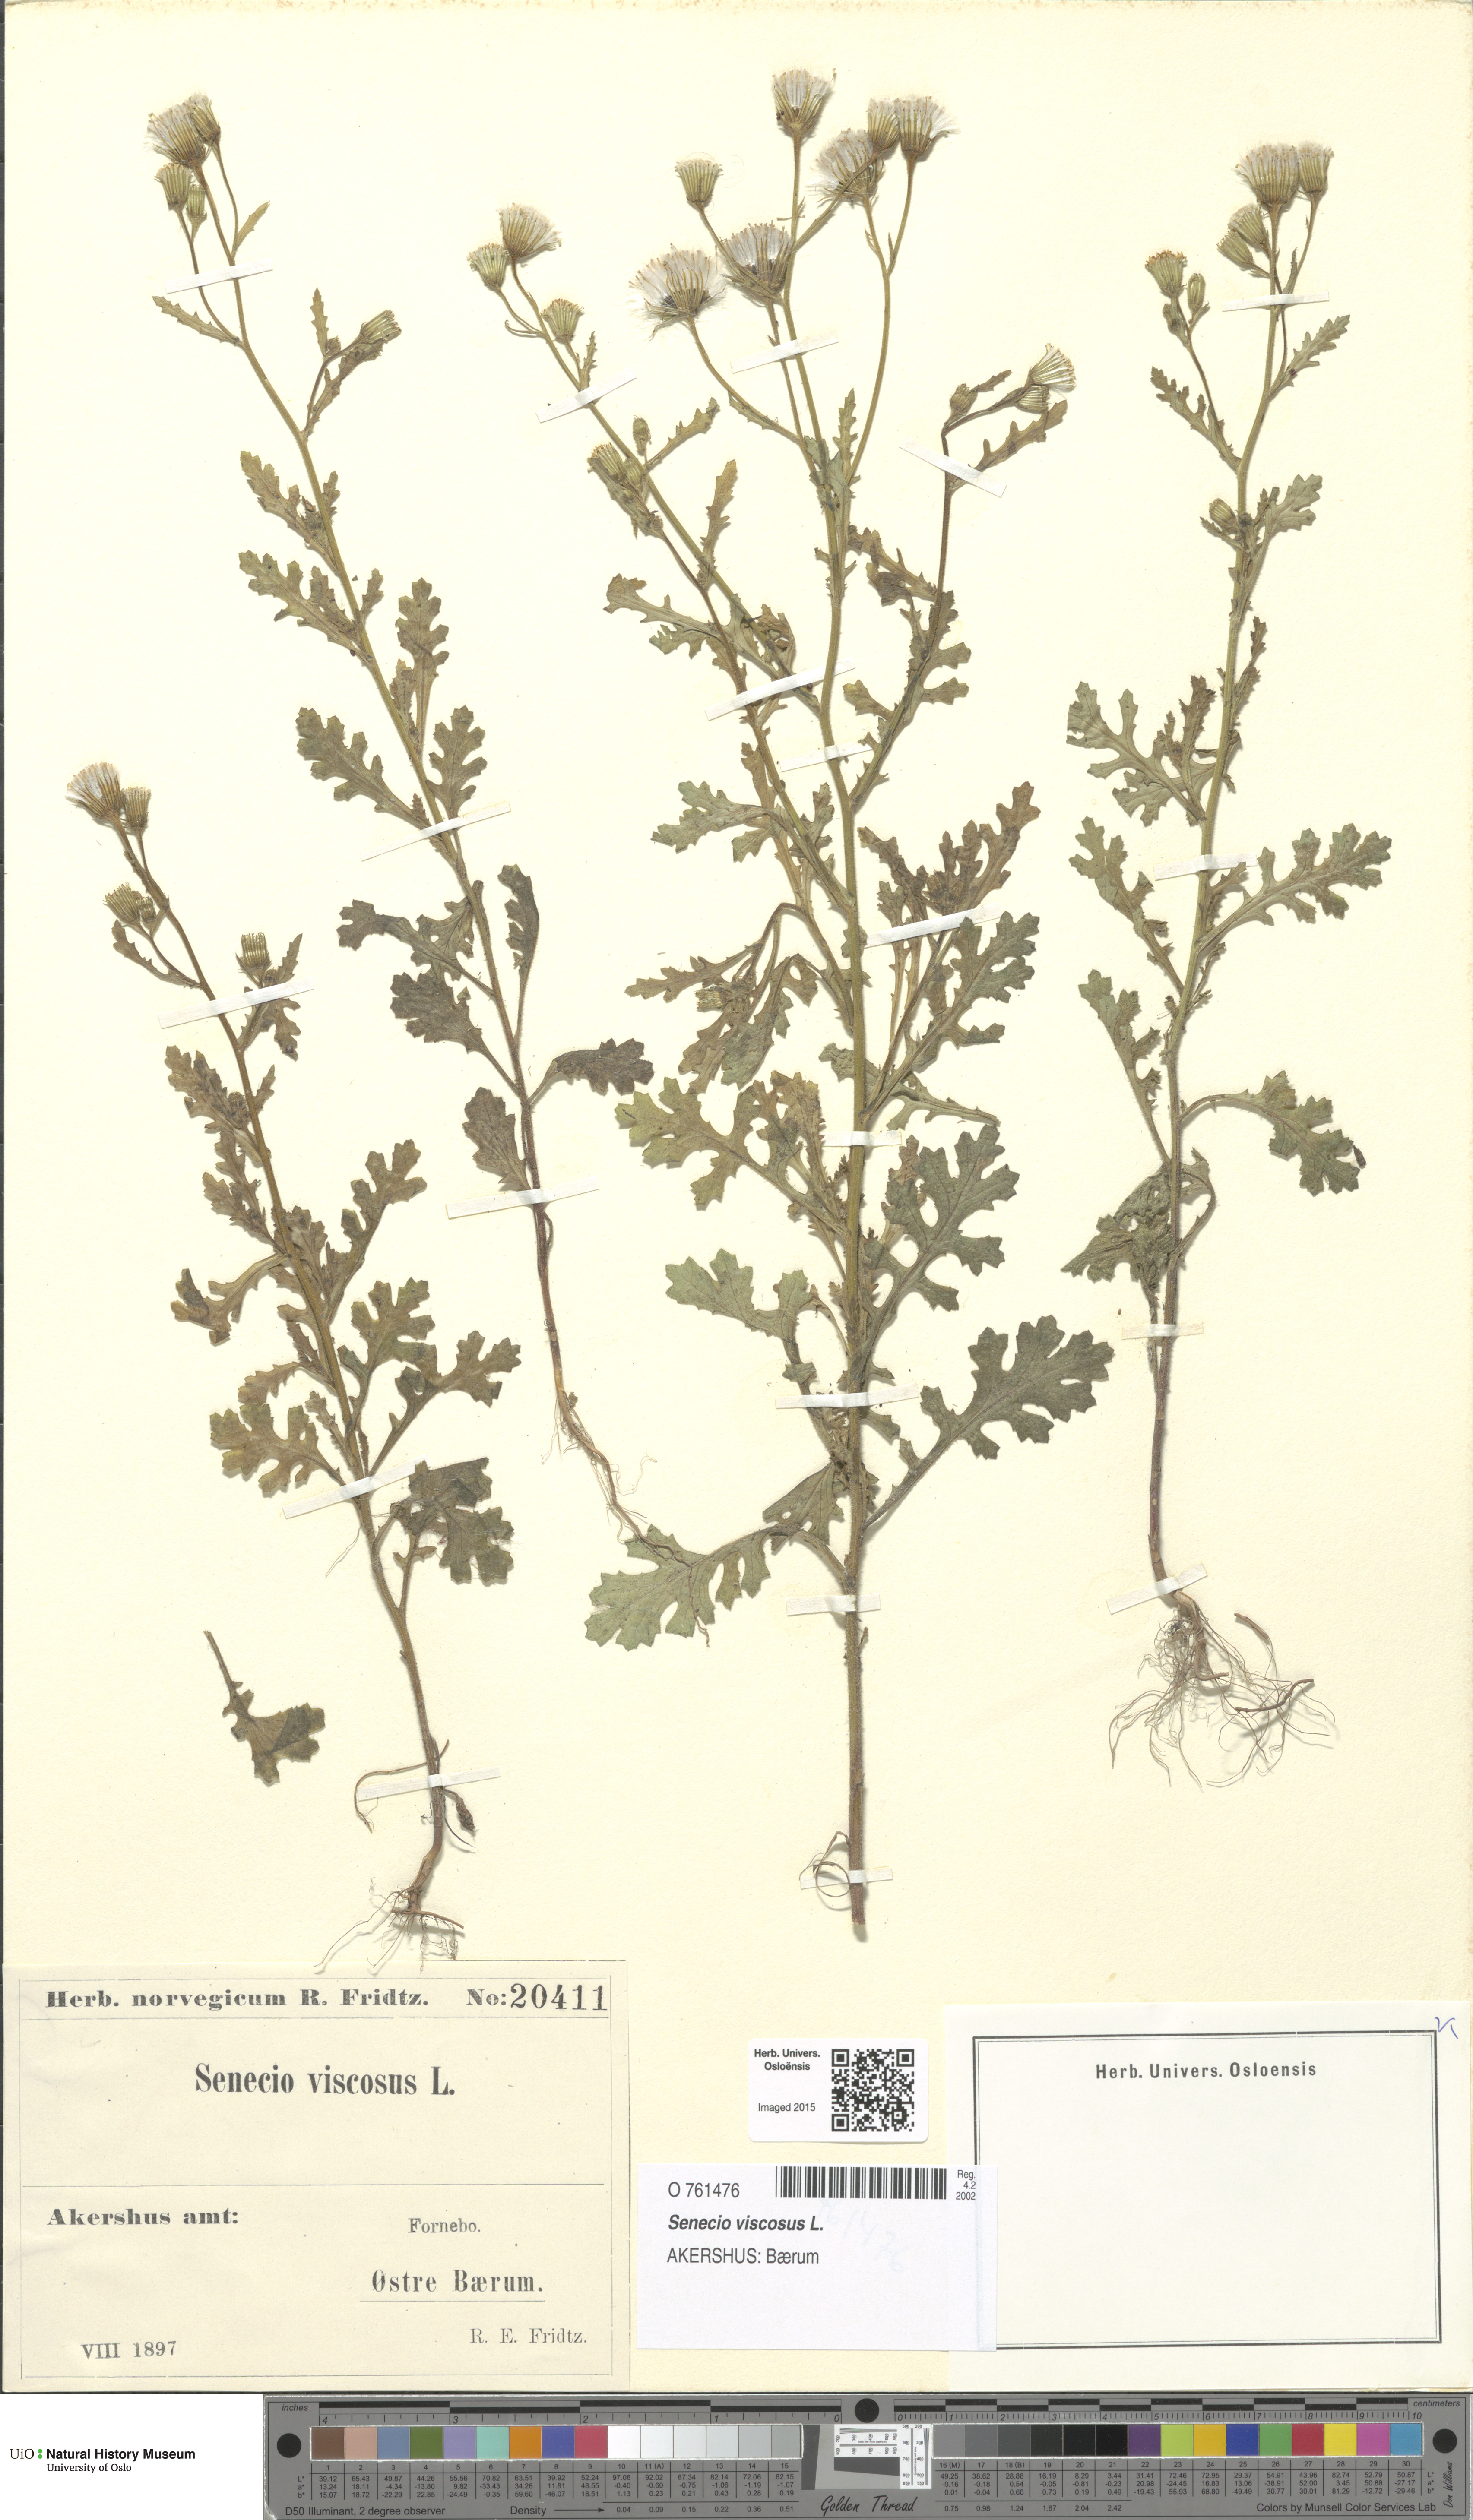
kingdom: Plantae
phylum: Tracheophyta
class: Magnoliopsida
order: Asterales
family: Asteraceae
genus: Senecio
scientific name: Senecio viscosus
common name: Sticky groundsel
